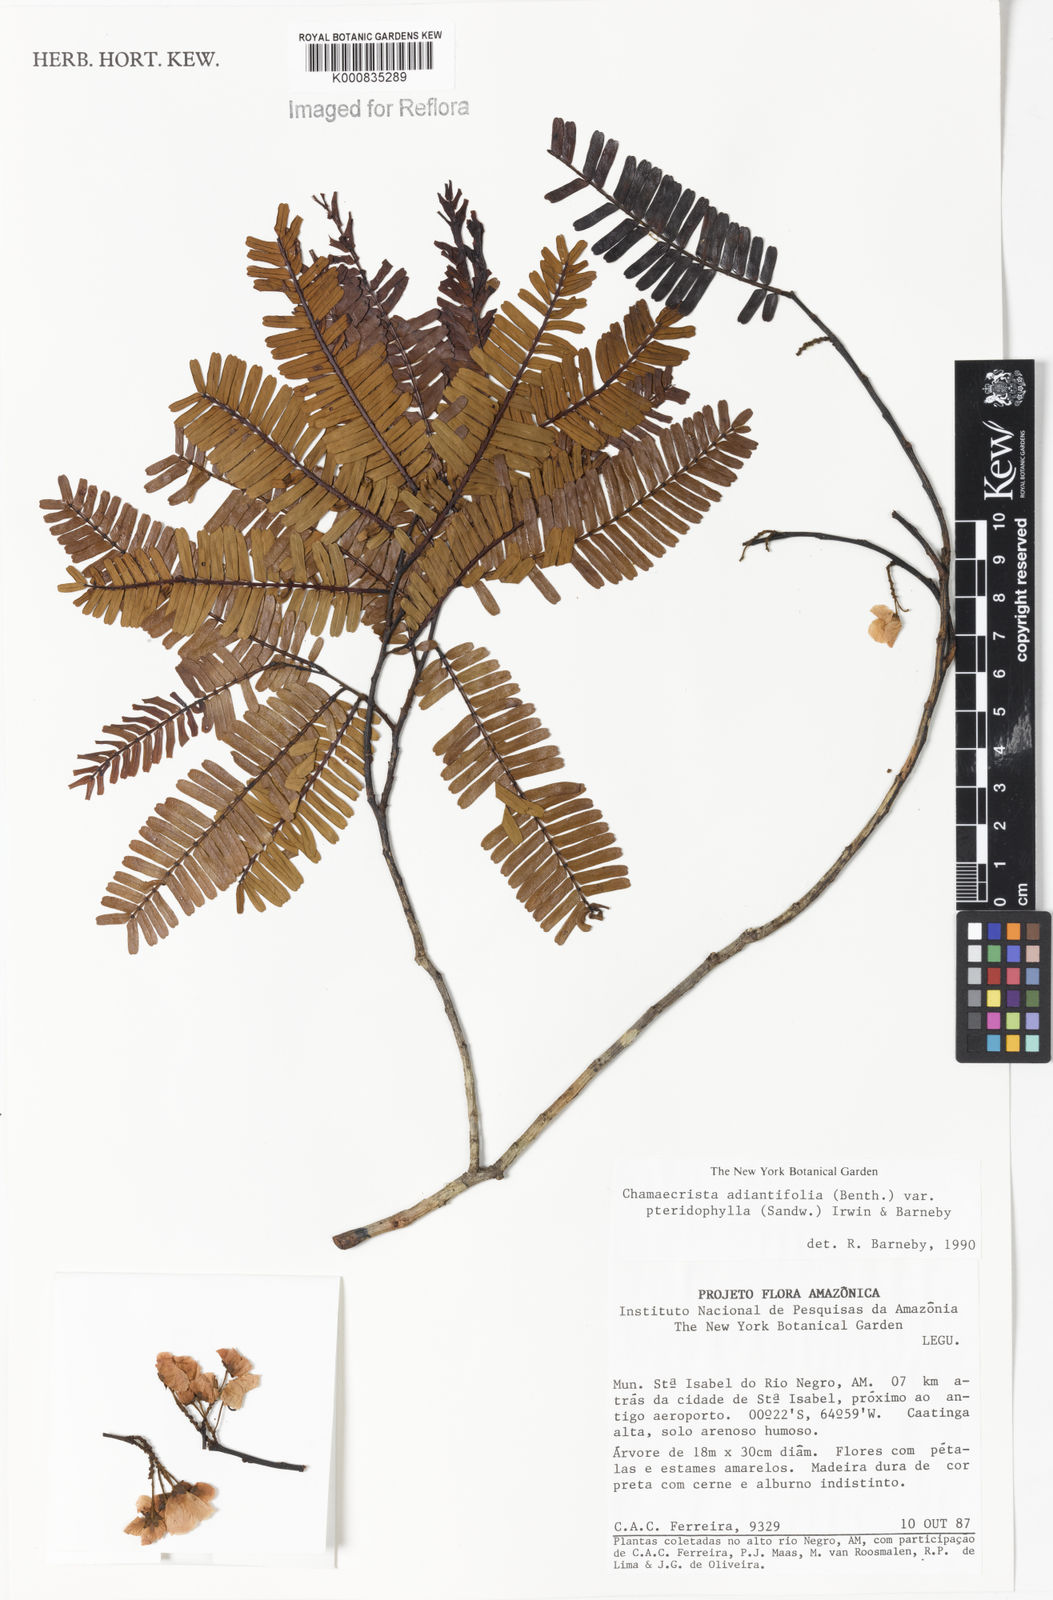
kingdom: Plantae
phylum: Tracheophyta
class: Magnoliopsida
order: Fabales
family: Fabaceae
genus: Chamaecrista
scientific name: Chamaecrista adiantifolia
